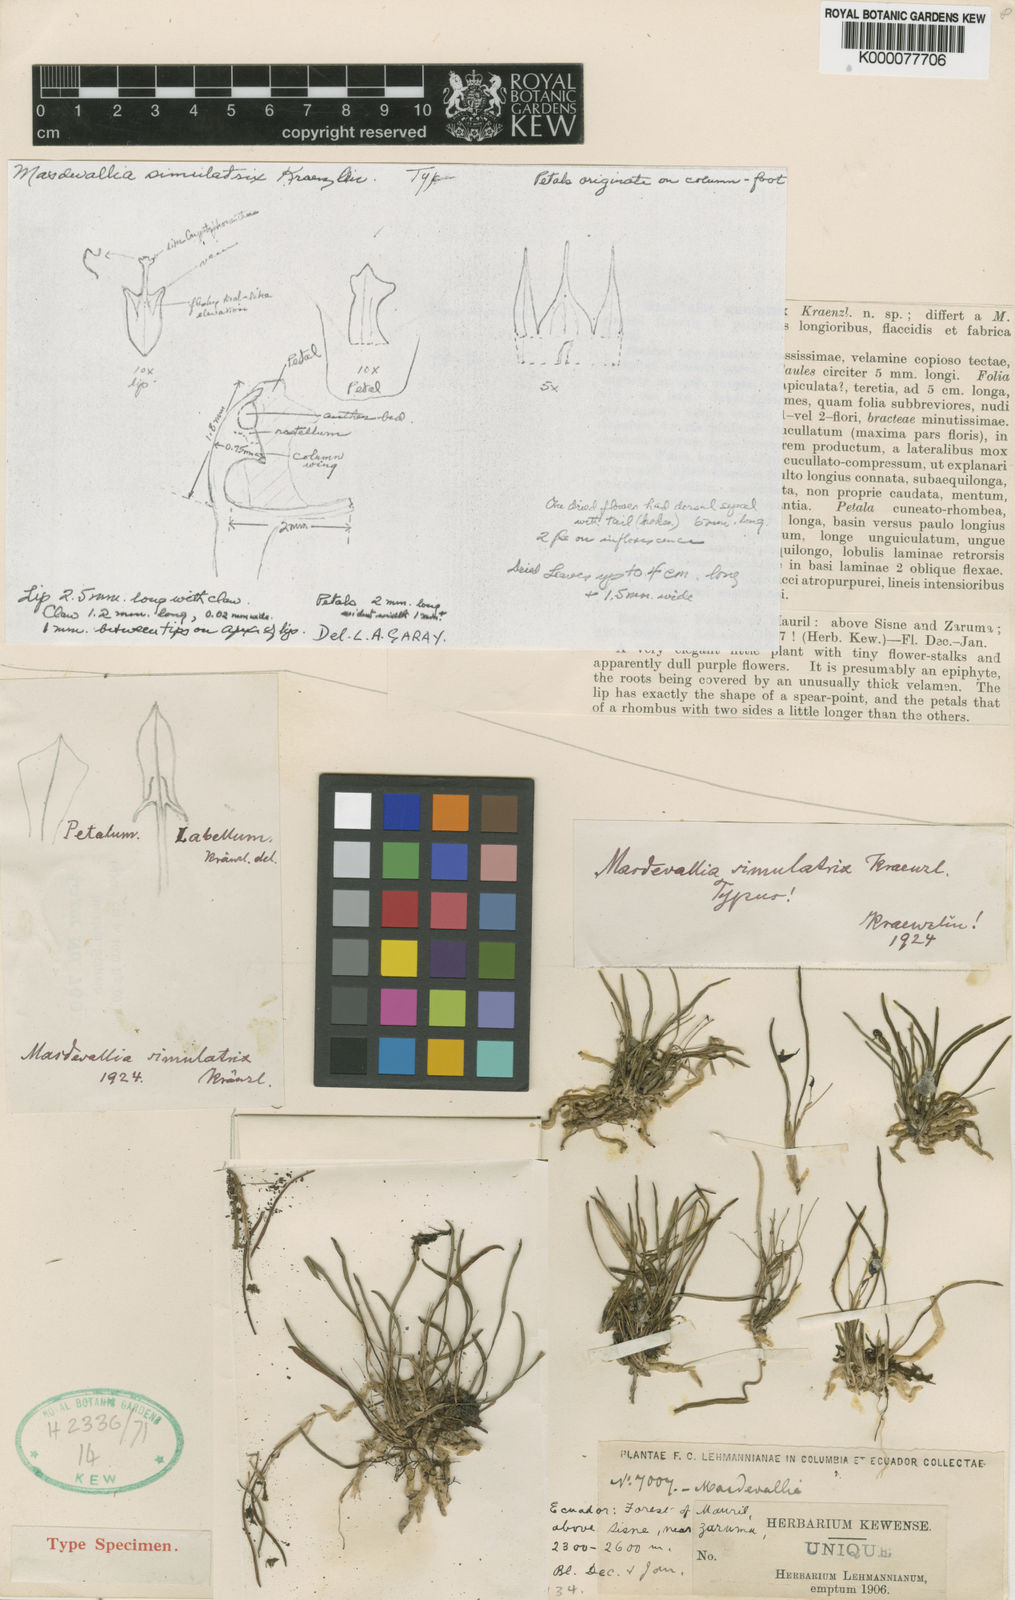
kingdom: Plantae
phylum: Tracheophyta
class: Liliopsida
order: Asparagales
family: Orchidaceae
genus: Dryadella
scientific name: Dryadella pusiola
